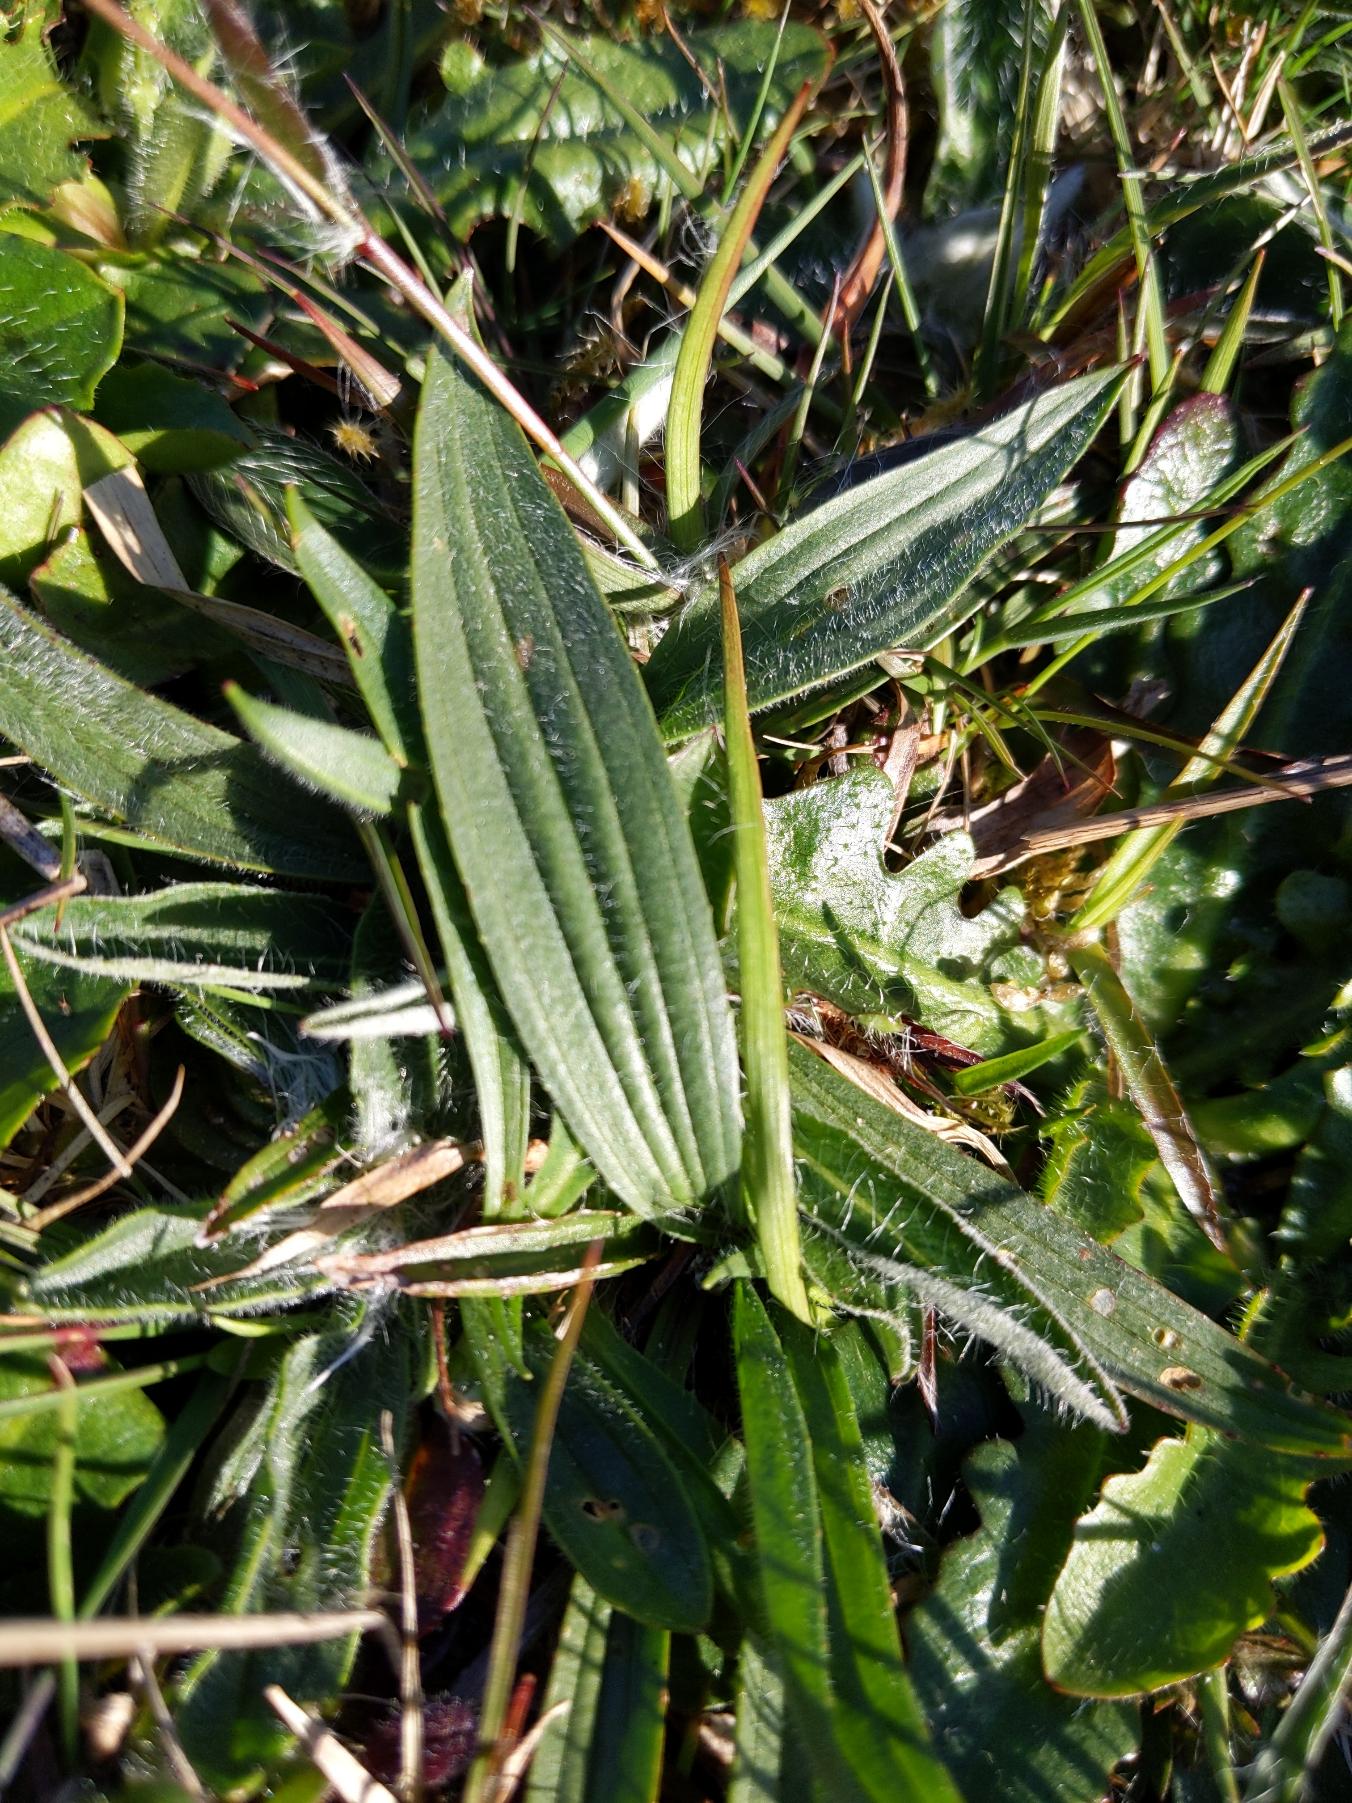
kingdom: Plantae
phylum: Tracheophyta
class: Magnoliopsida
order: Lamiales
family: Plantaginaceae
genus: Plantago
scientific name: Plantago lanceolata
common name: Lancet-vejbred
